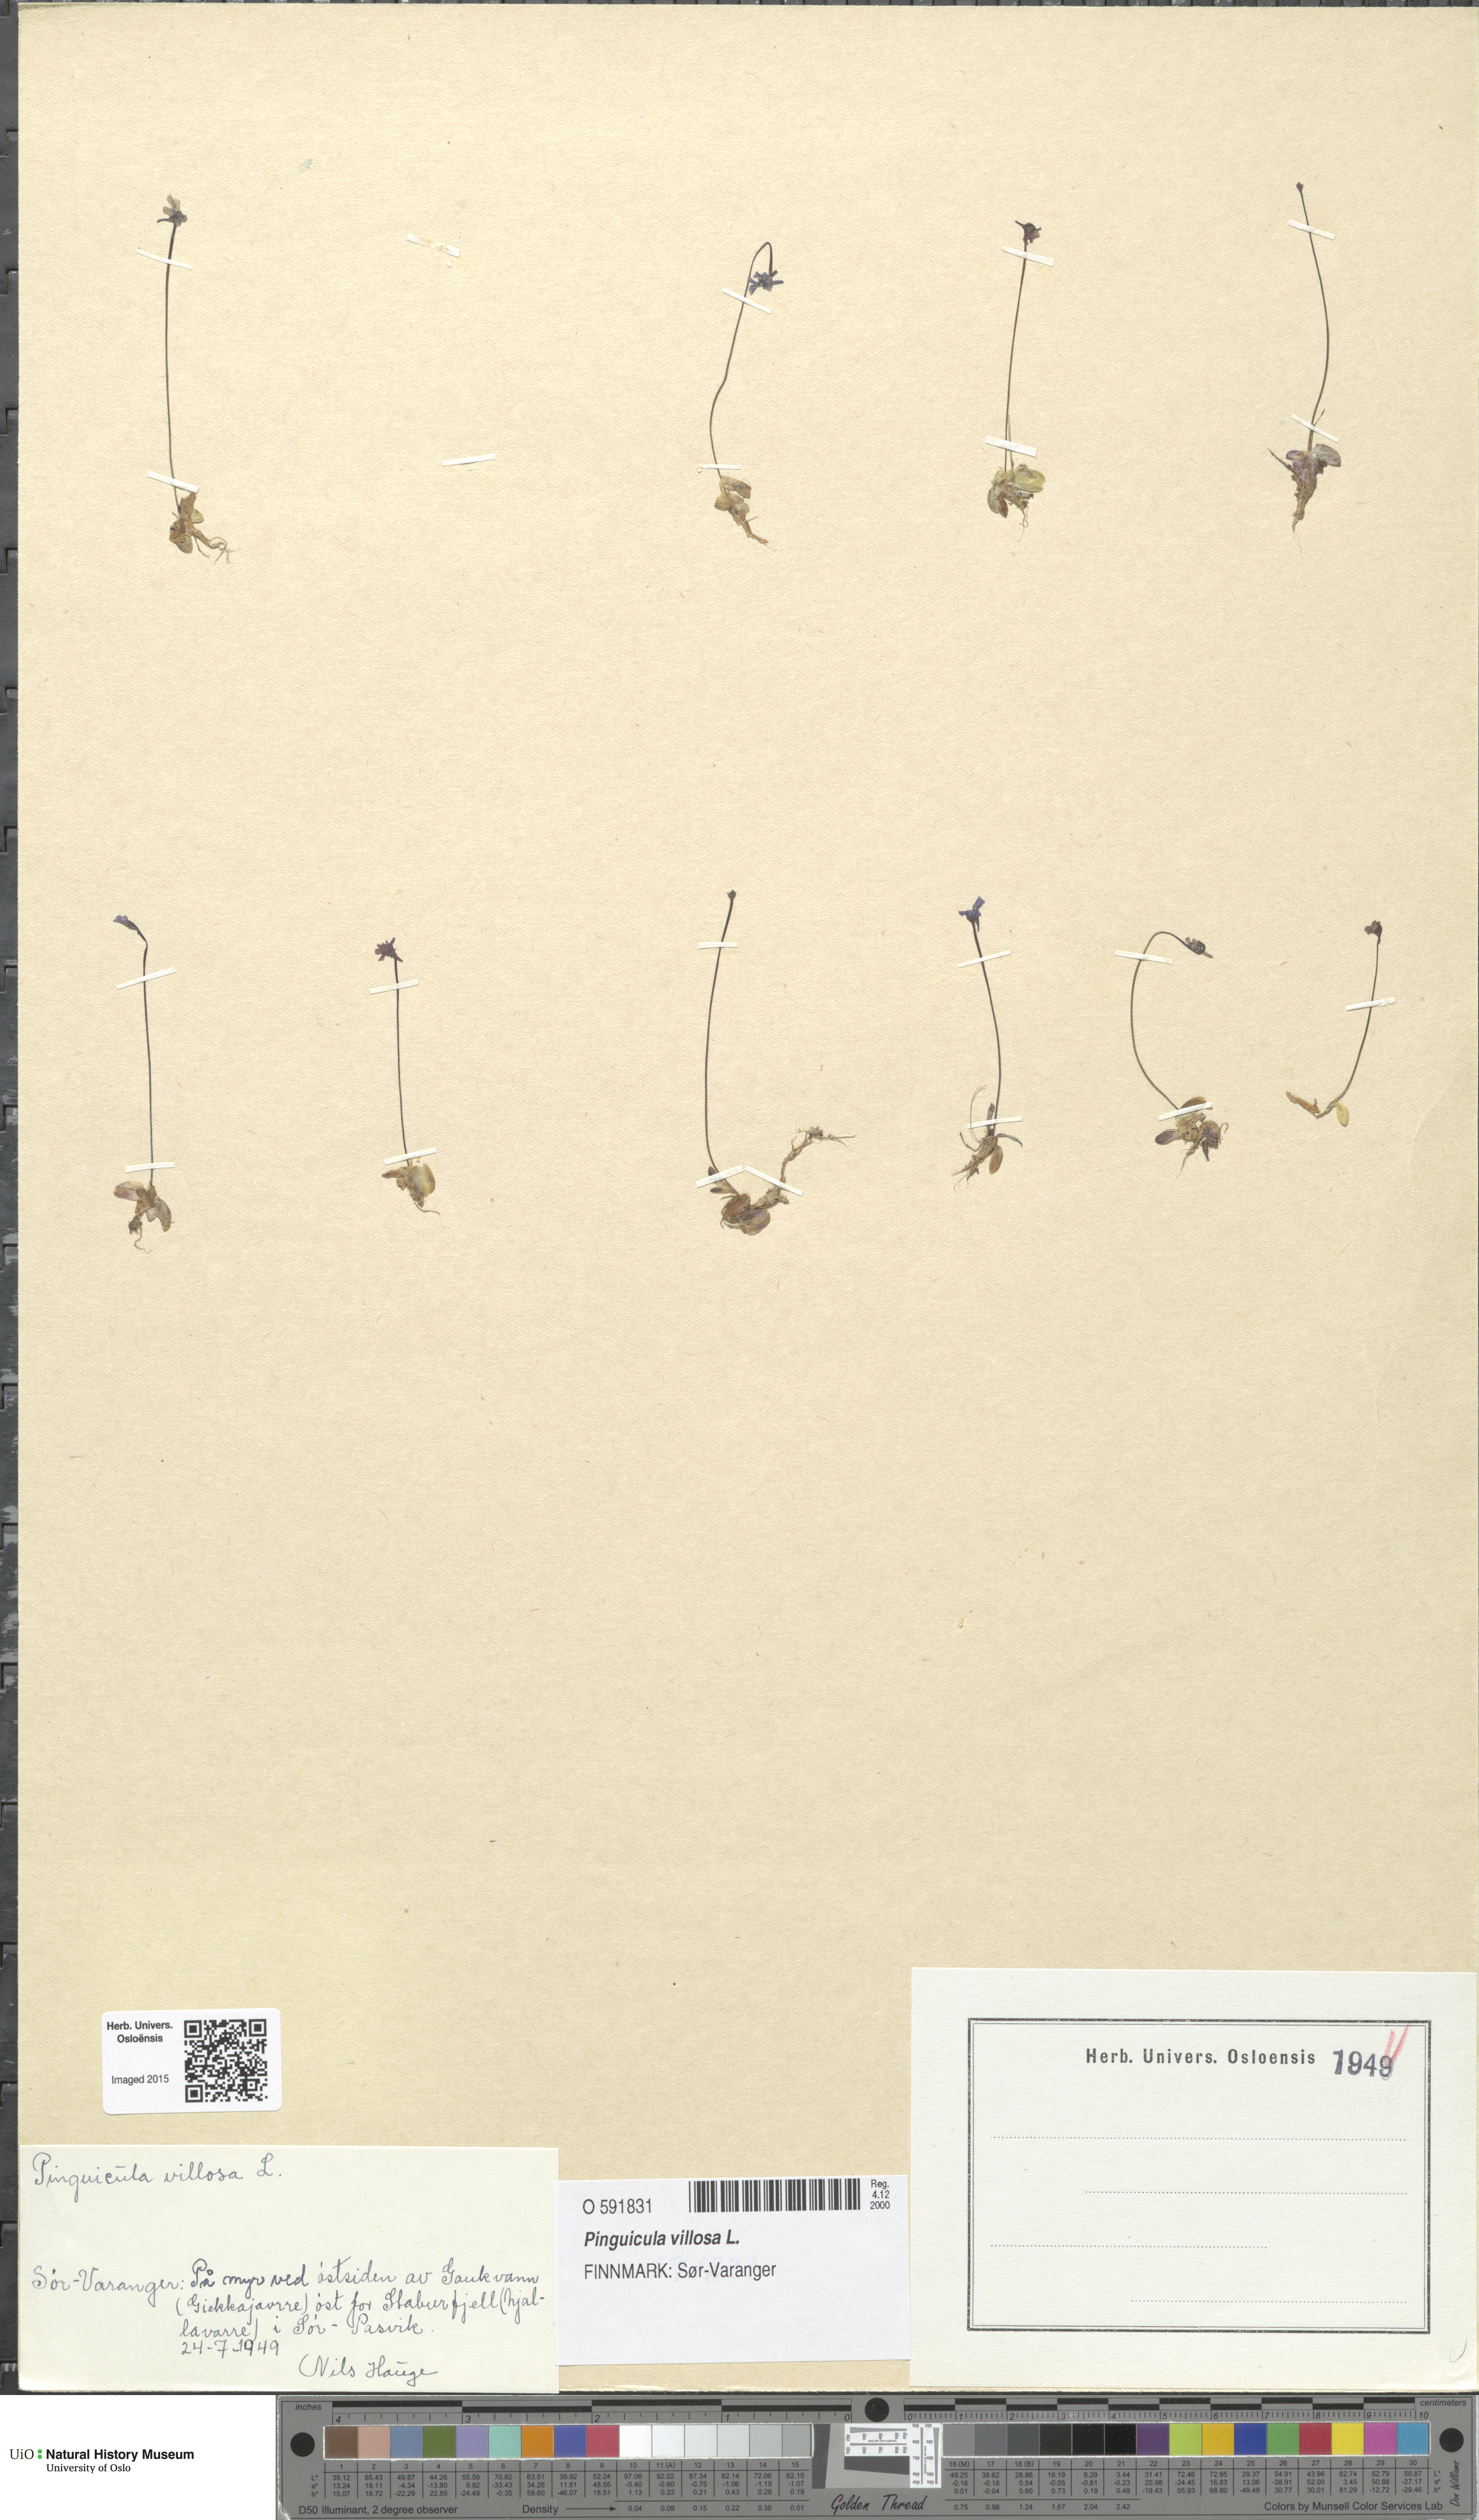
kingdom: Plantae
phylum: Tracheophyta
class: Magnoliopsida
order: Lamiales
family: Lentibulariaceae
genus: Pinguicula
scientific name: Pinguicula villosa
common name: Hairy butterwort
